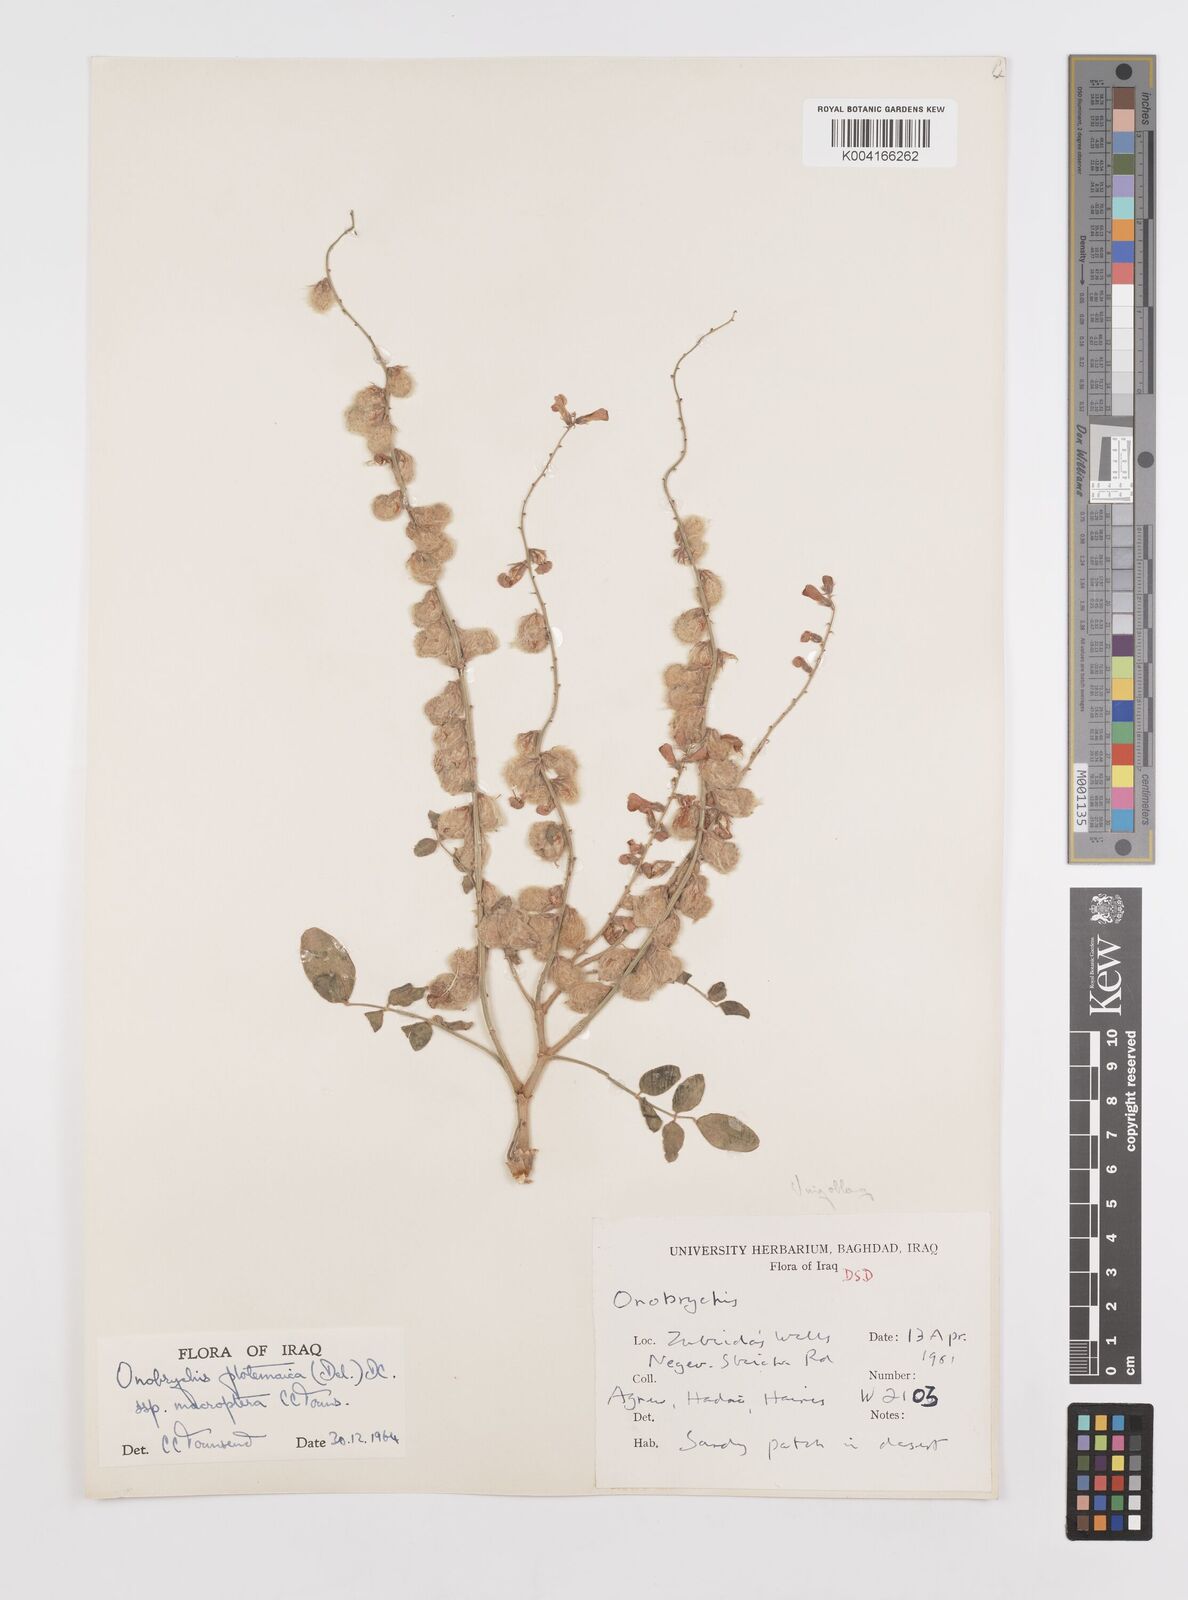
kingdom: Plantae
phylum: Tracheophyta
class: Magnoliopsida
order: Fabales
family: Fabaceae
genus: Onobrychis
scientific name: Onobrychis ptolemaica
